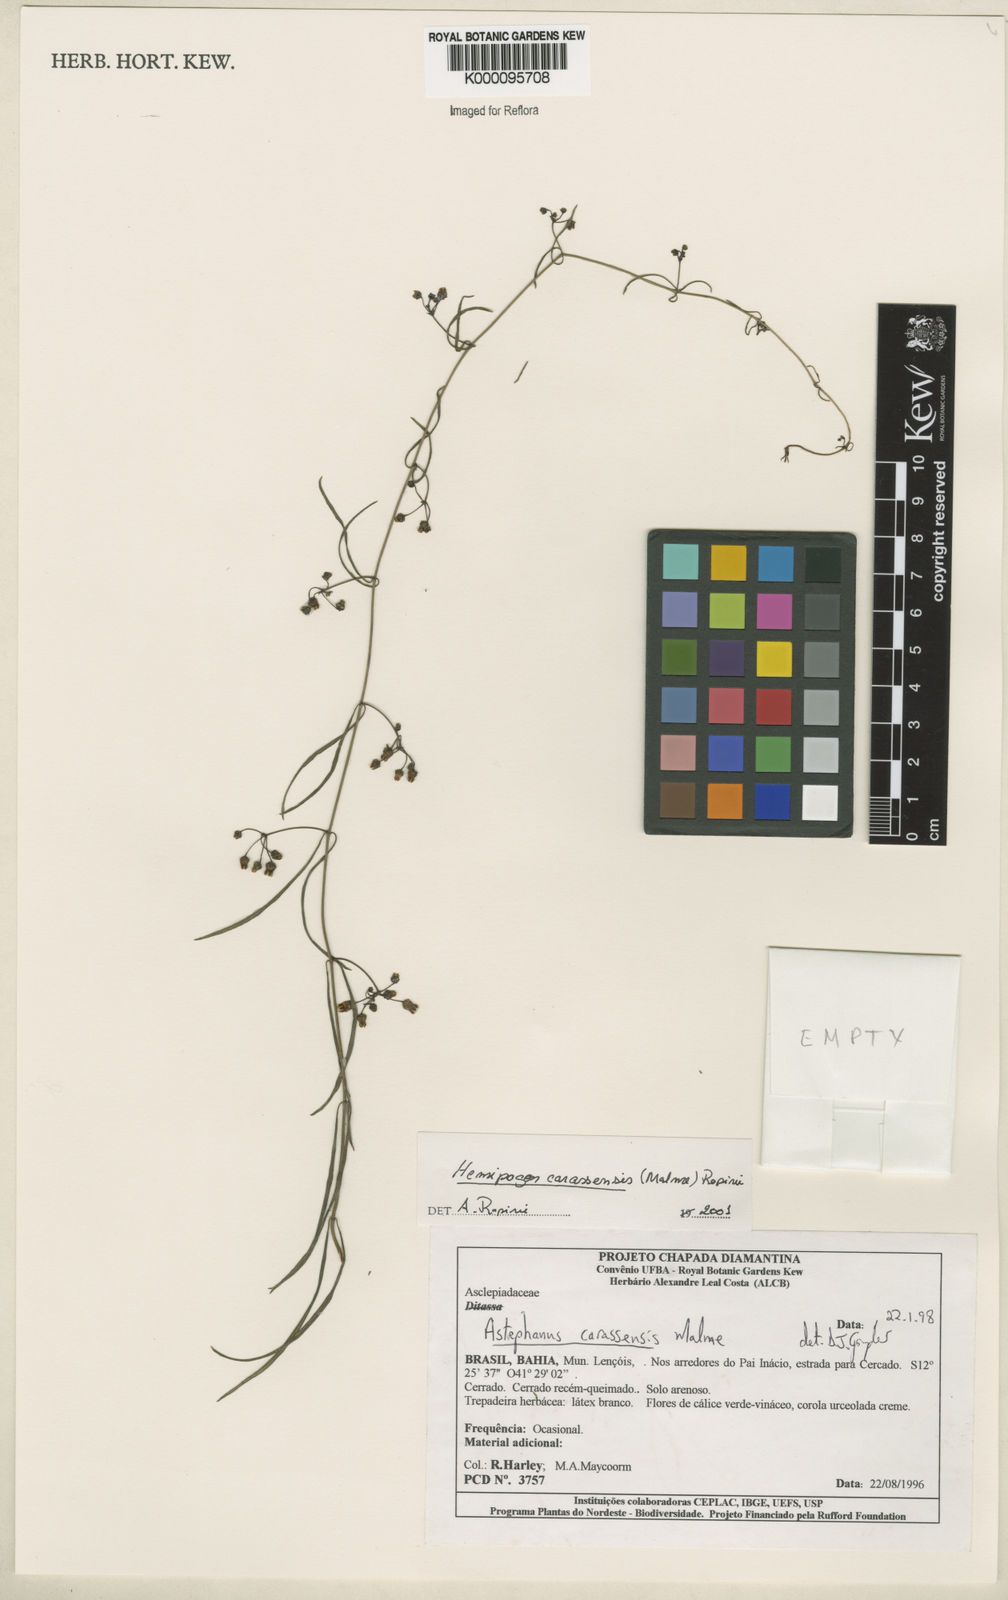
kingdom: Plantae
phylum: Tracheophyta
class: Magnoliopsida
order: Gentianales
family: Apocynaceae
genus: Morilloa
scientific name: Morilloa carassensis
